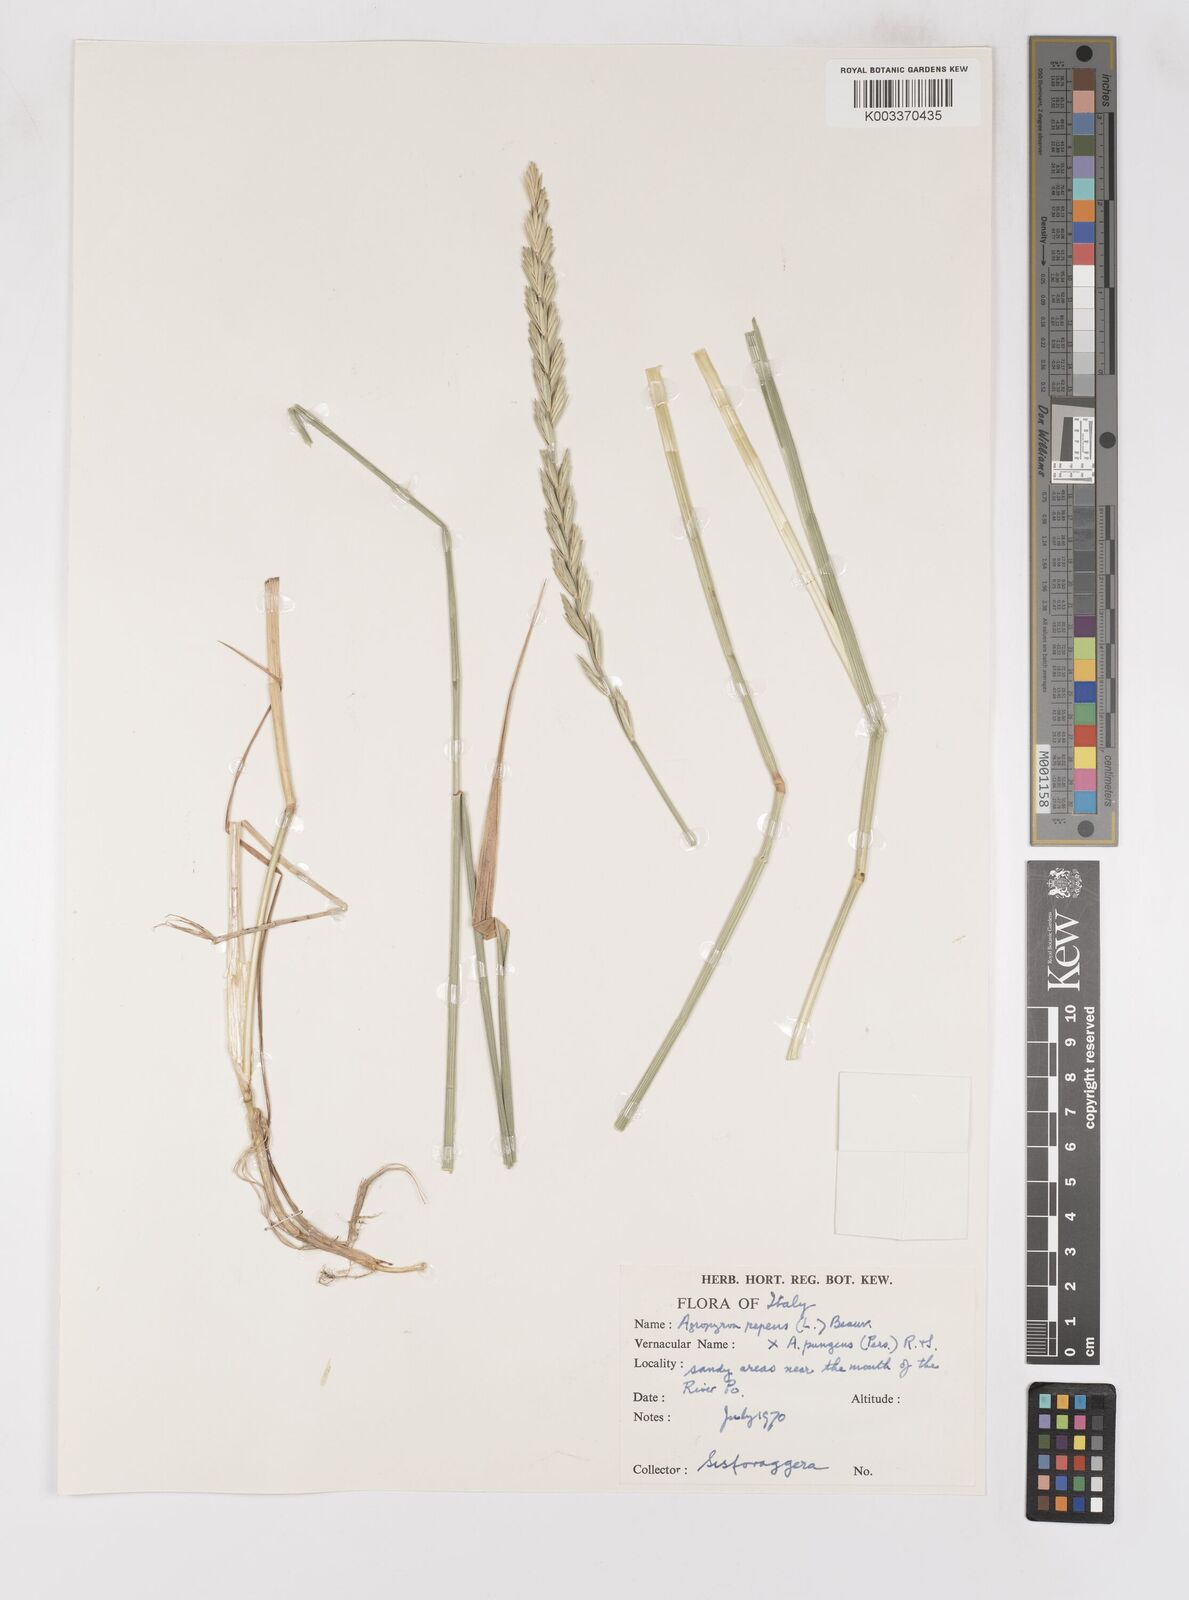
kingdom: Plantae
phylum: Tracheophyta
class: Liliopsida
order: Poales
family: Poaceae
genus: Elymus
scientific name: Elymus oliveri
